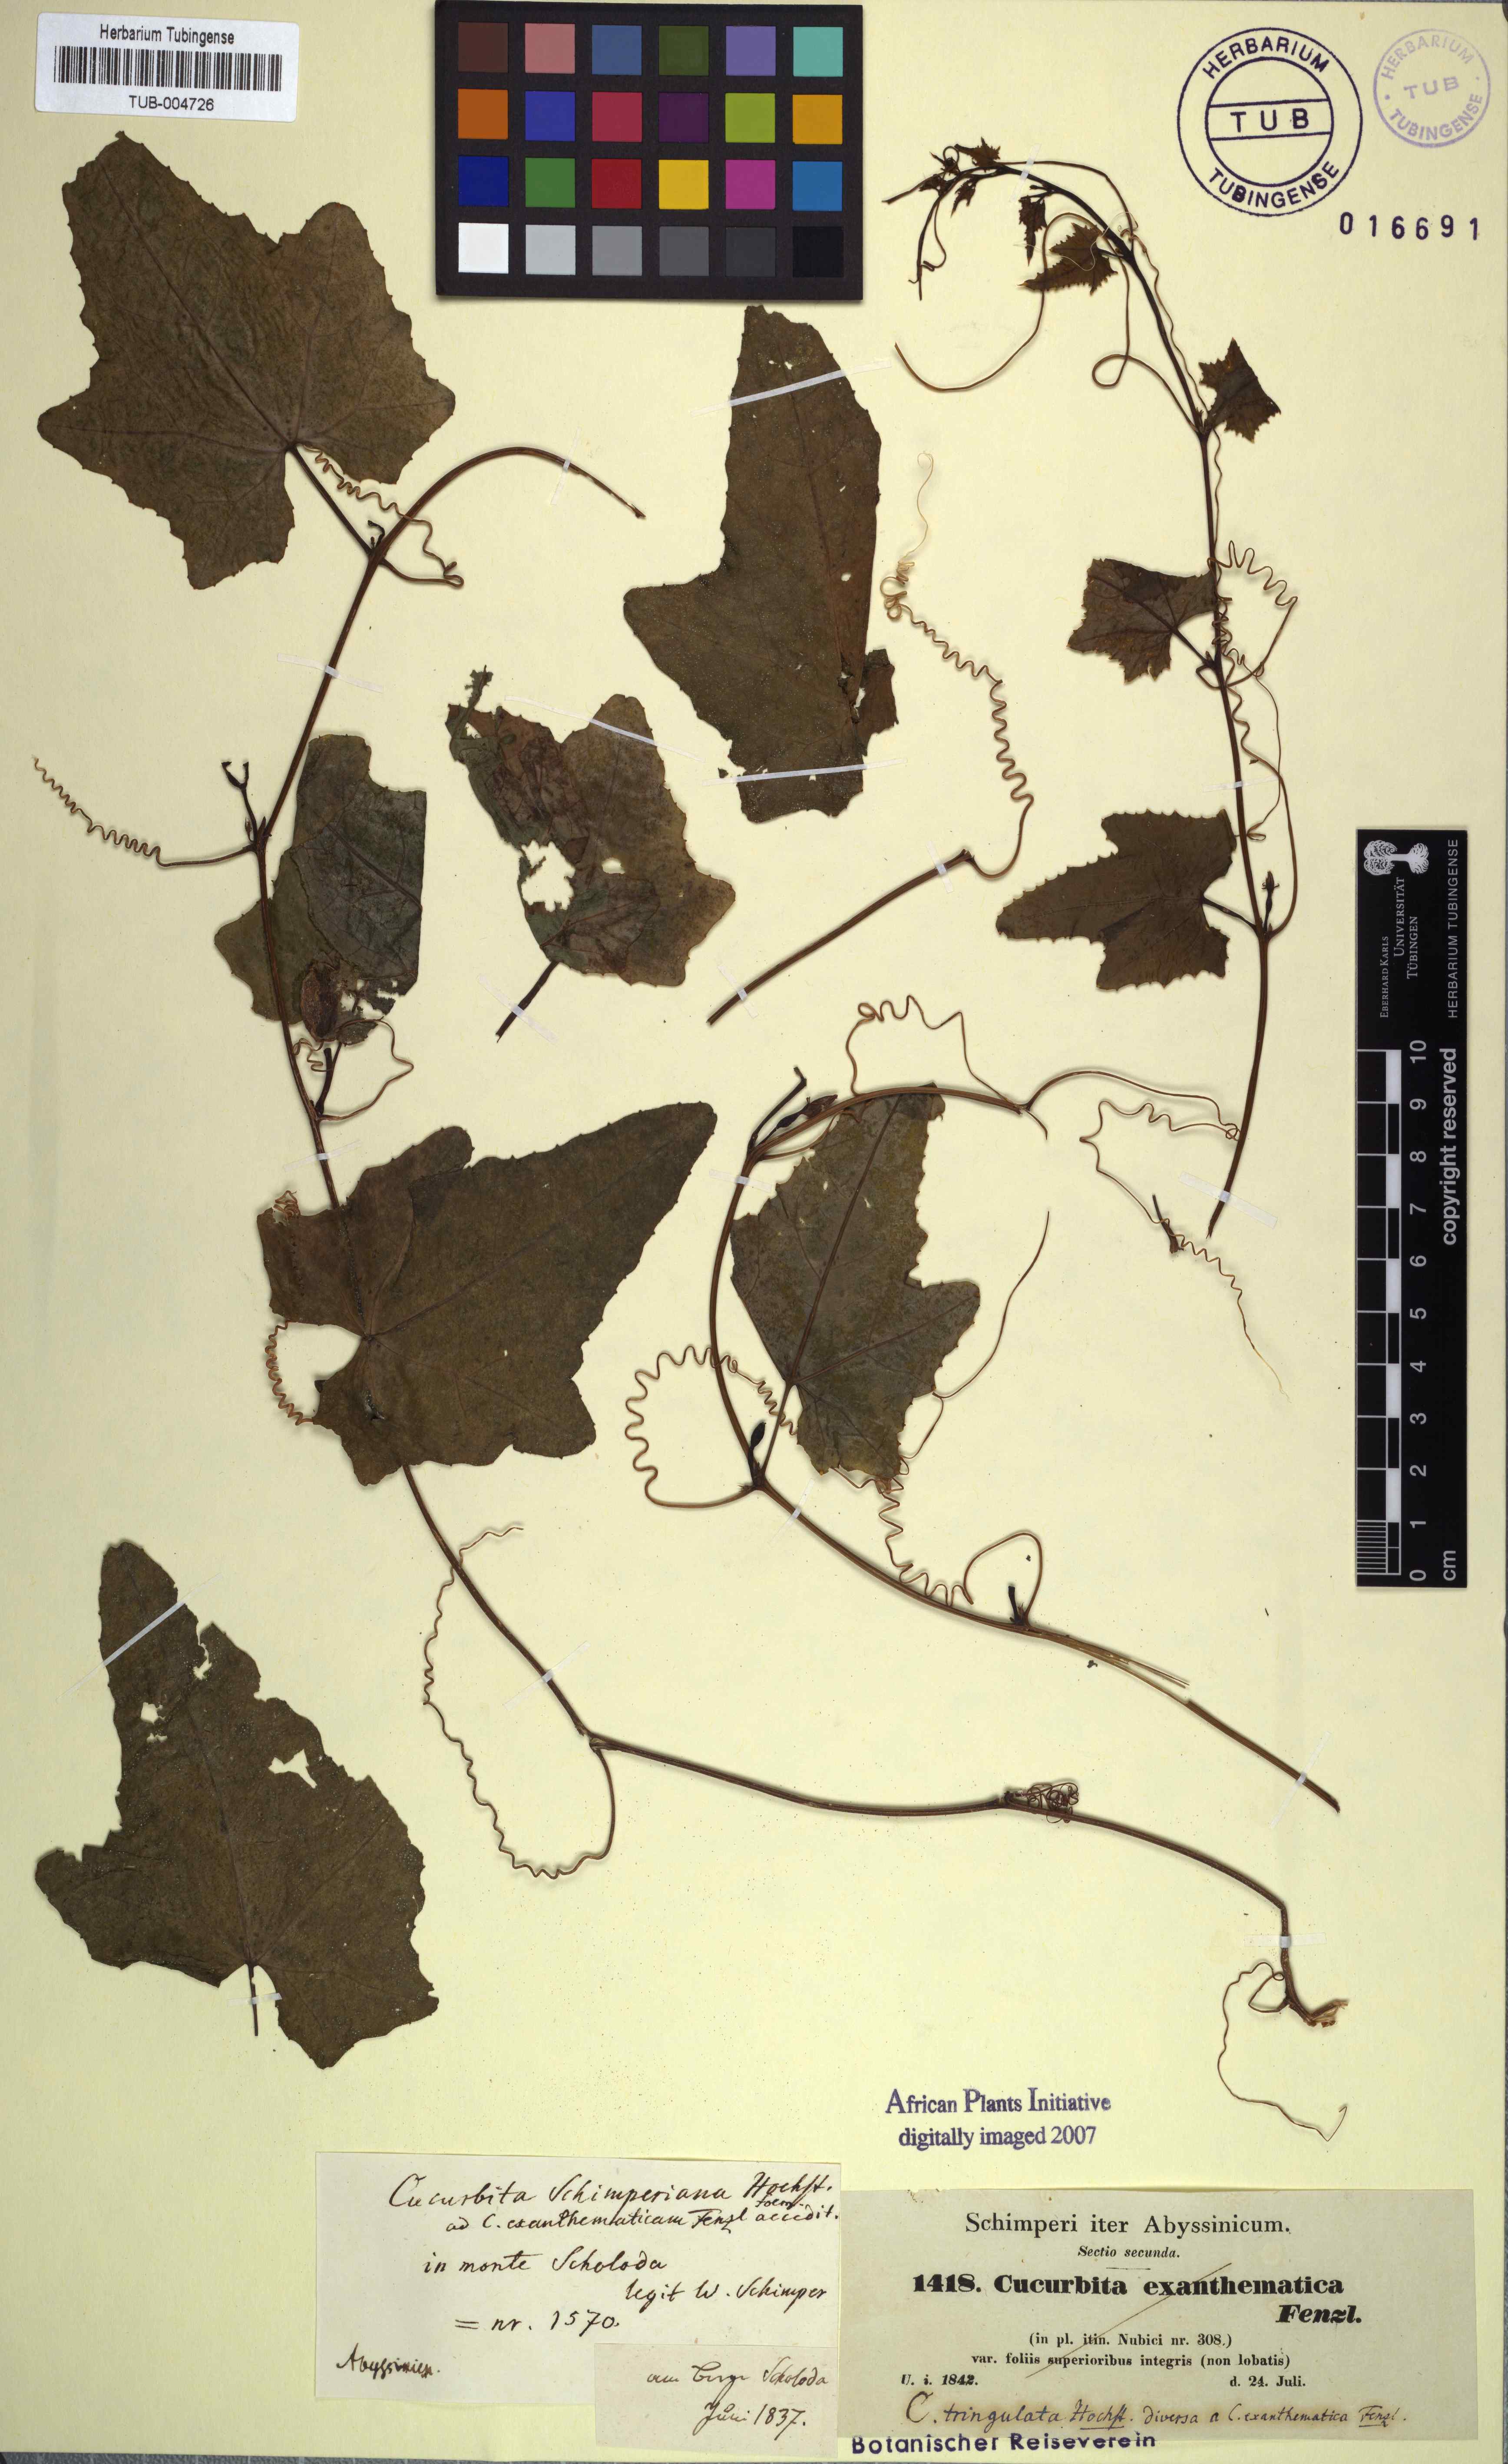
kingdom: Plantae
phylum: Tracheophyta
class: Magnoliopsida
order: Cucurbitales
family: Cucurbitaceae
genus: Coccinia
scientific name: Coccinia grandis
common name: Ivy gourd
